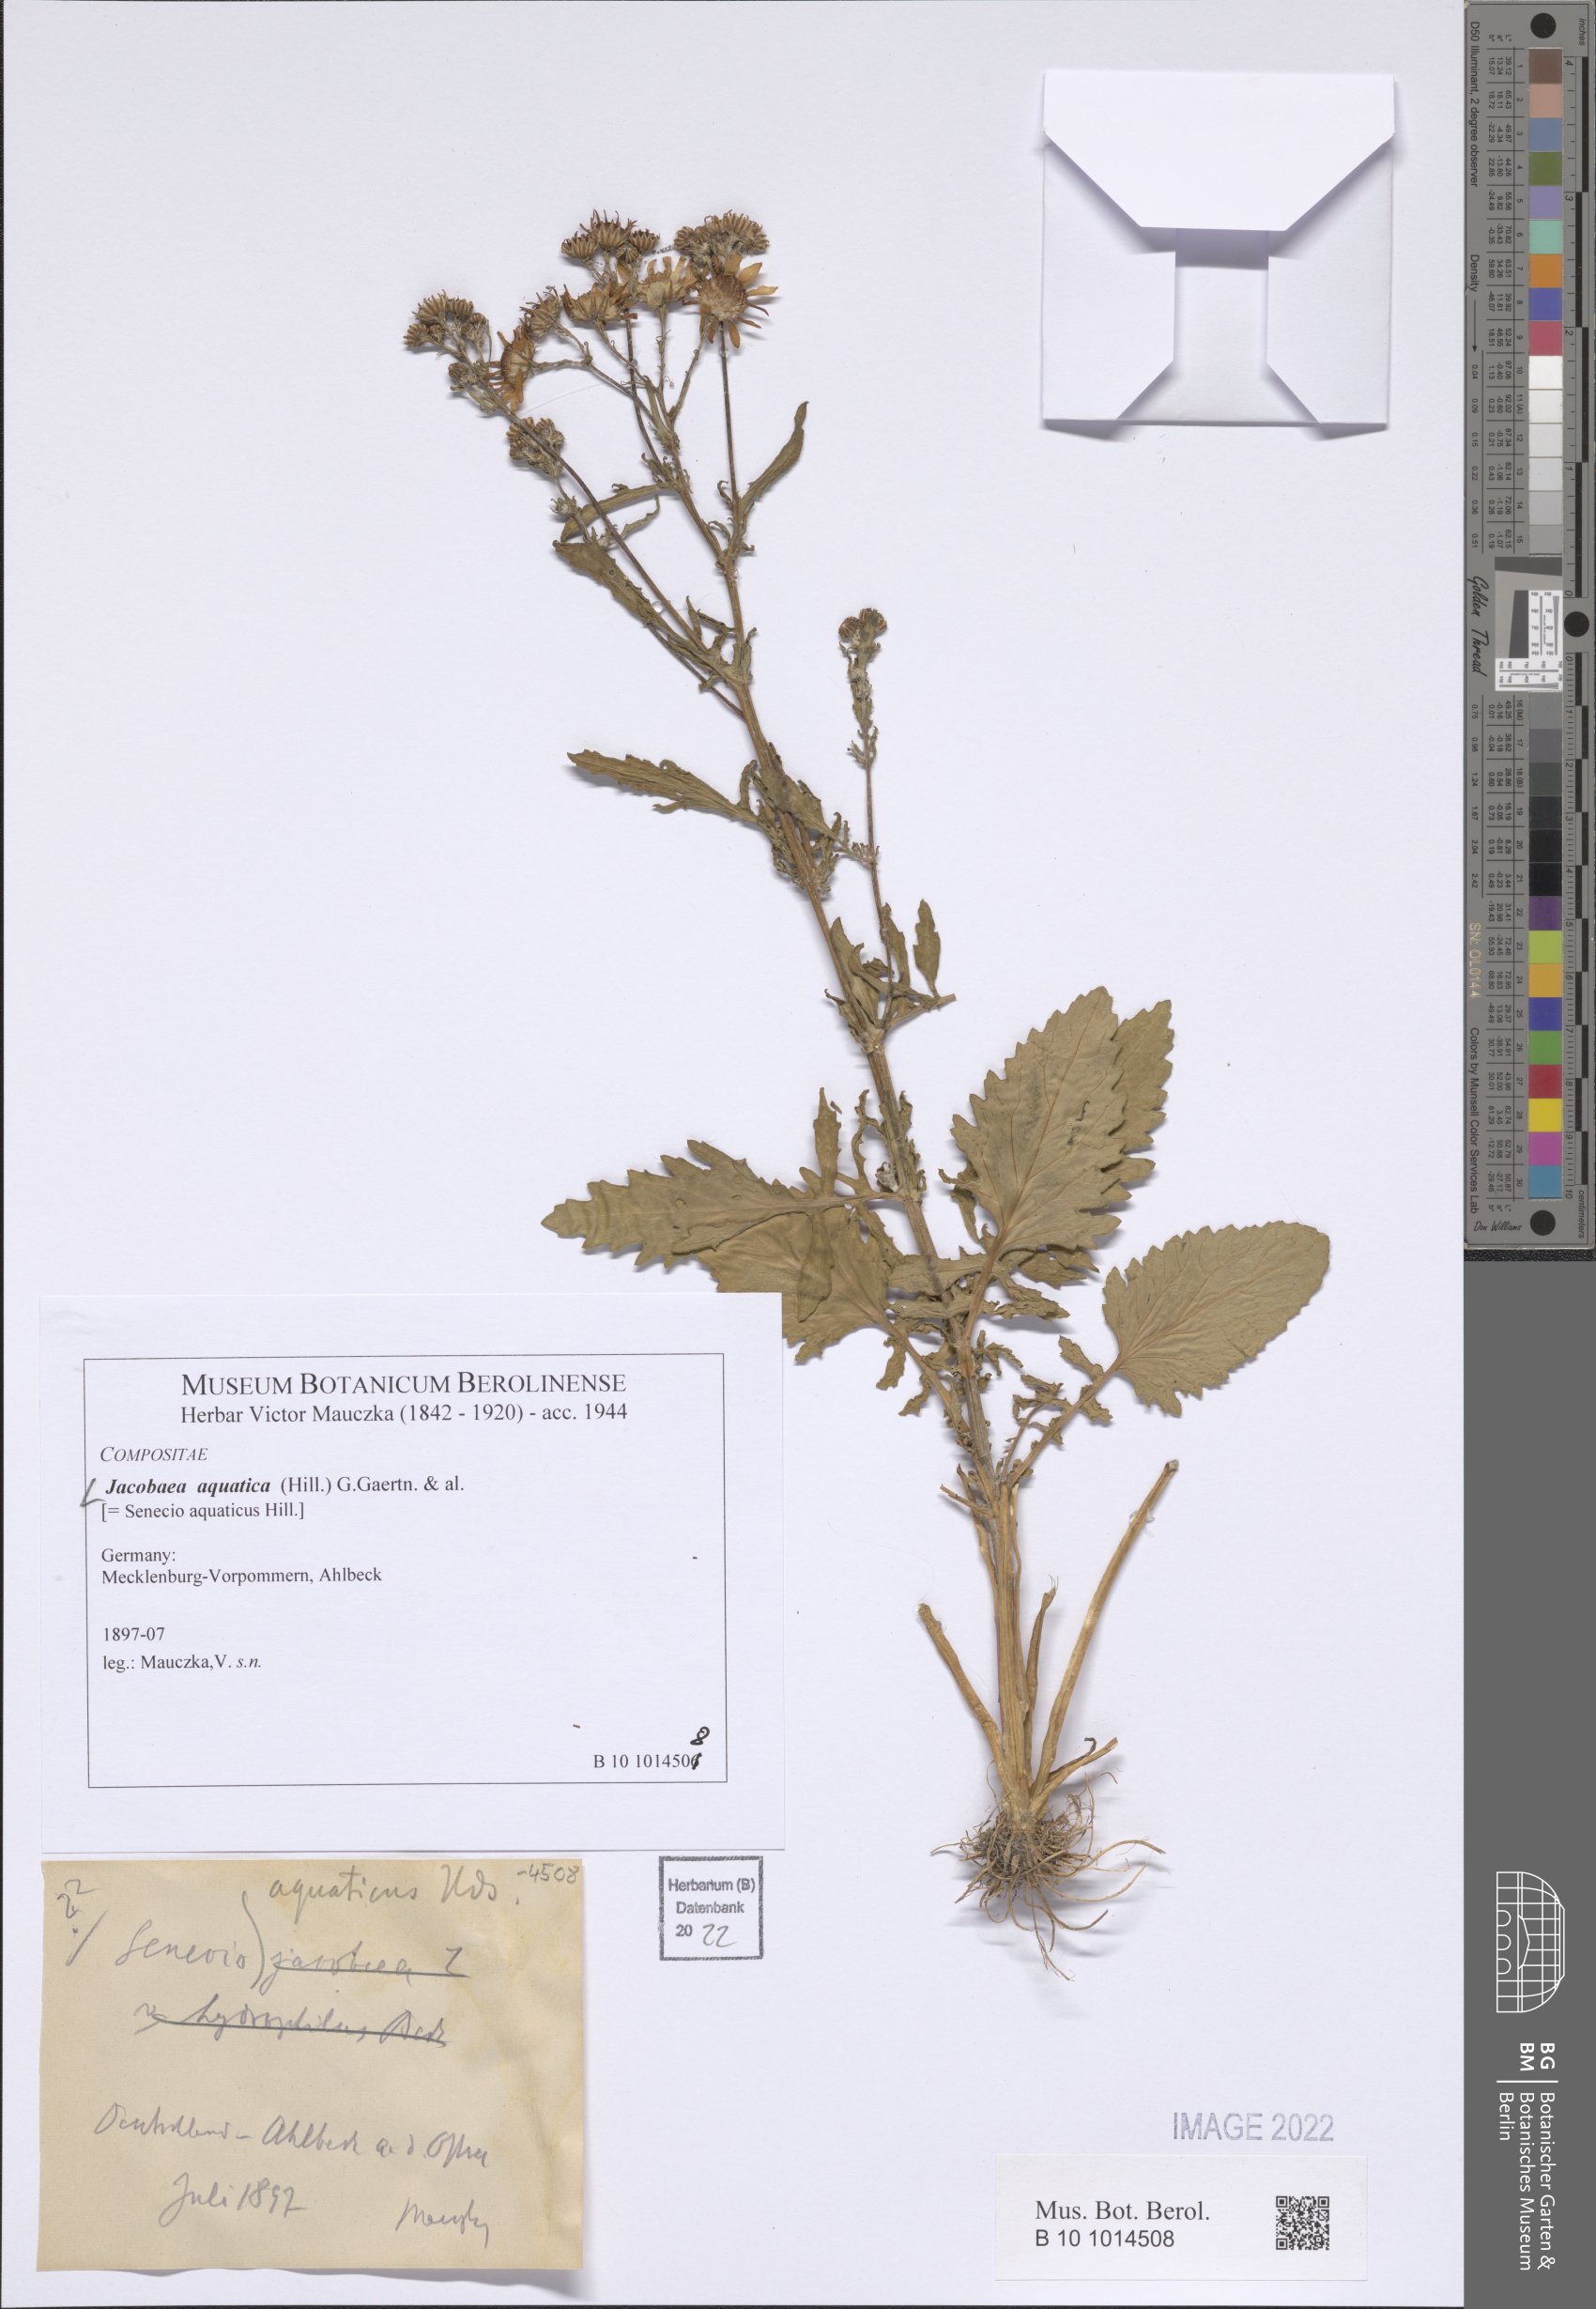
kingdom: Plantae
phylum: Tracheophyta
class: Magnoliopsida
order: Asterales
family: Asteraceae
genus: Jacobaea
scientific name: Jacobaea aquatica
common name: Water ragwort
